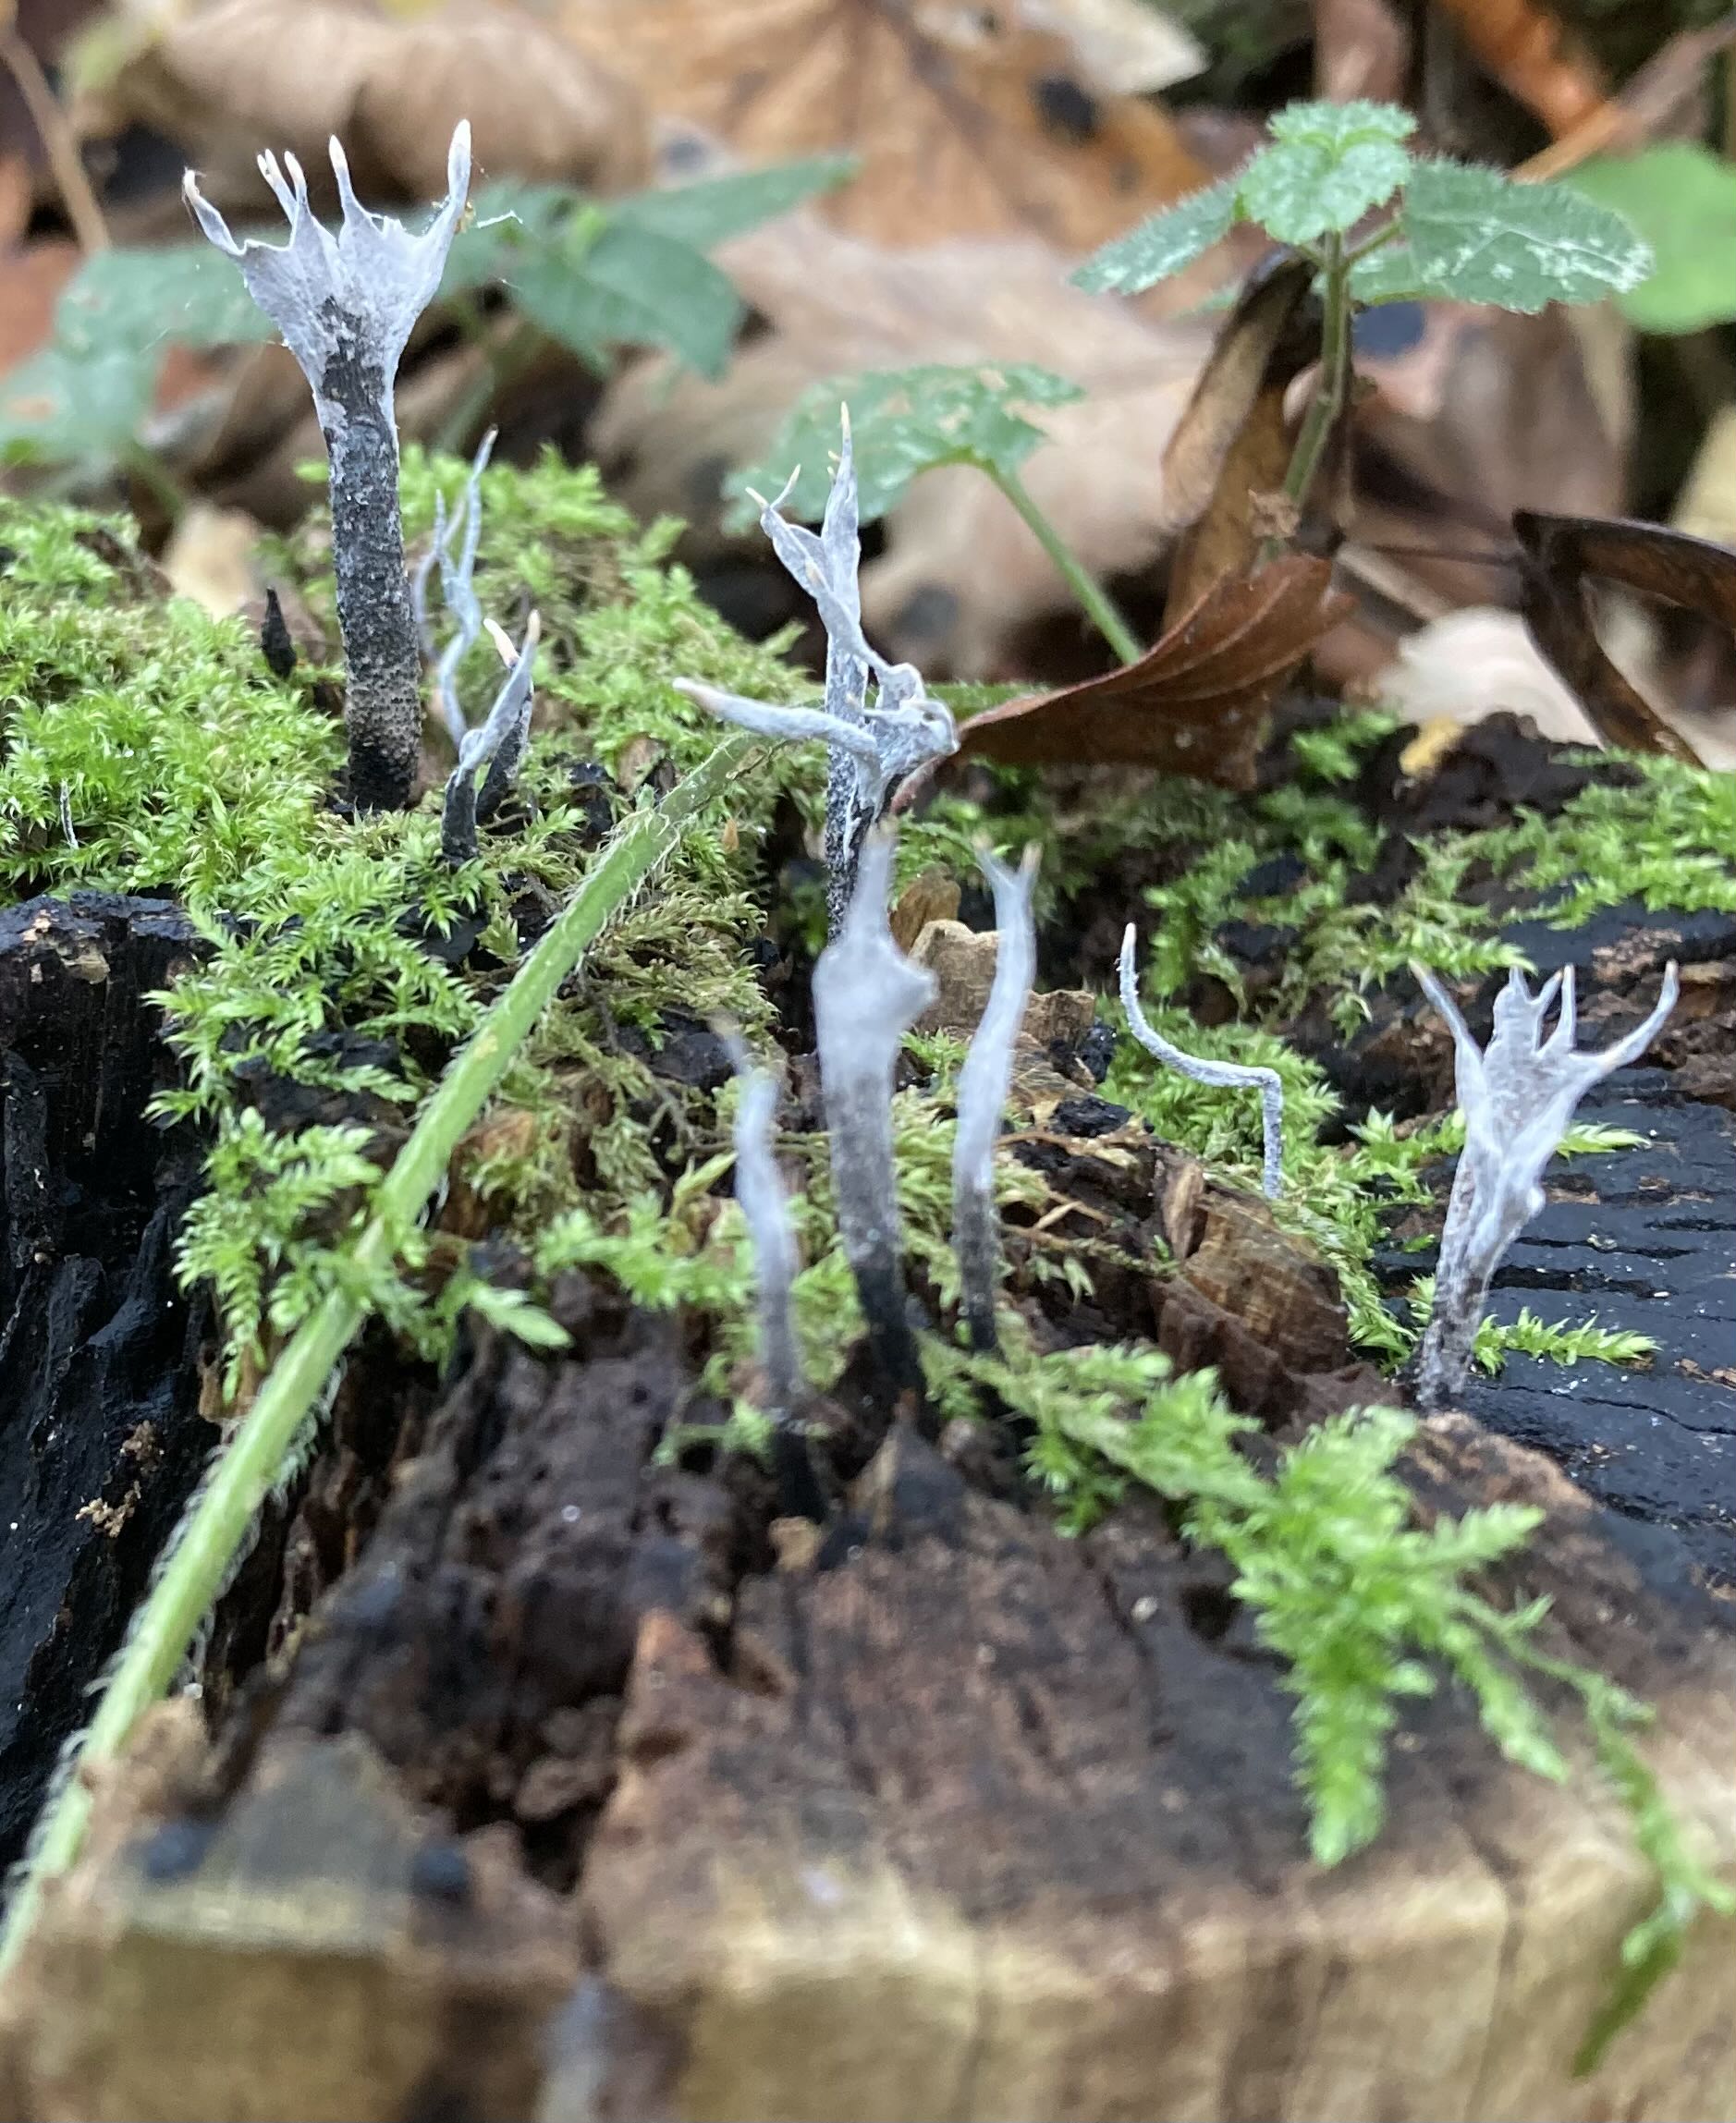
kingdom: Fungi
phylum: Ascomycota
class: Sordariomycetes
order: Xylariales
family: Xylariaceae
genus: Xylaria
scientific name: Xylaria hypoxylon
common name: grenet stødsvamp
